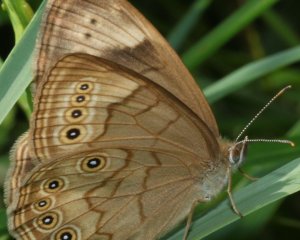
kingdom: Animalia
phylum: Arthropoda
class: Insecta
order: Lepidoptera
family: Nymphalidae
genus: Lethe
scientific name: Lethe eurydice
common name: Eyed Brown
